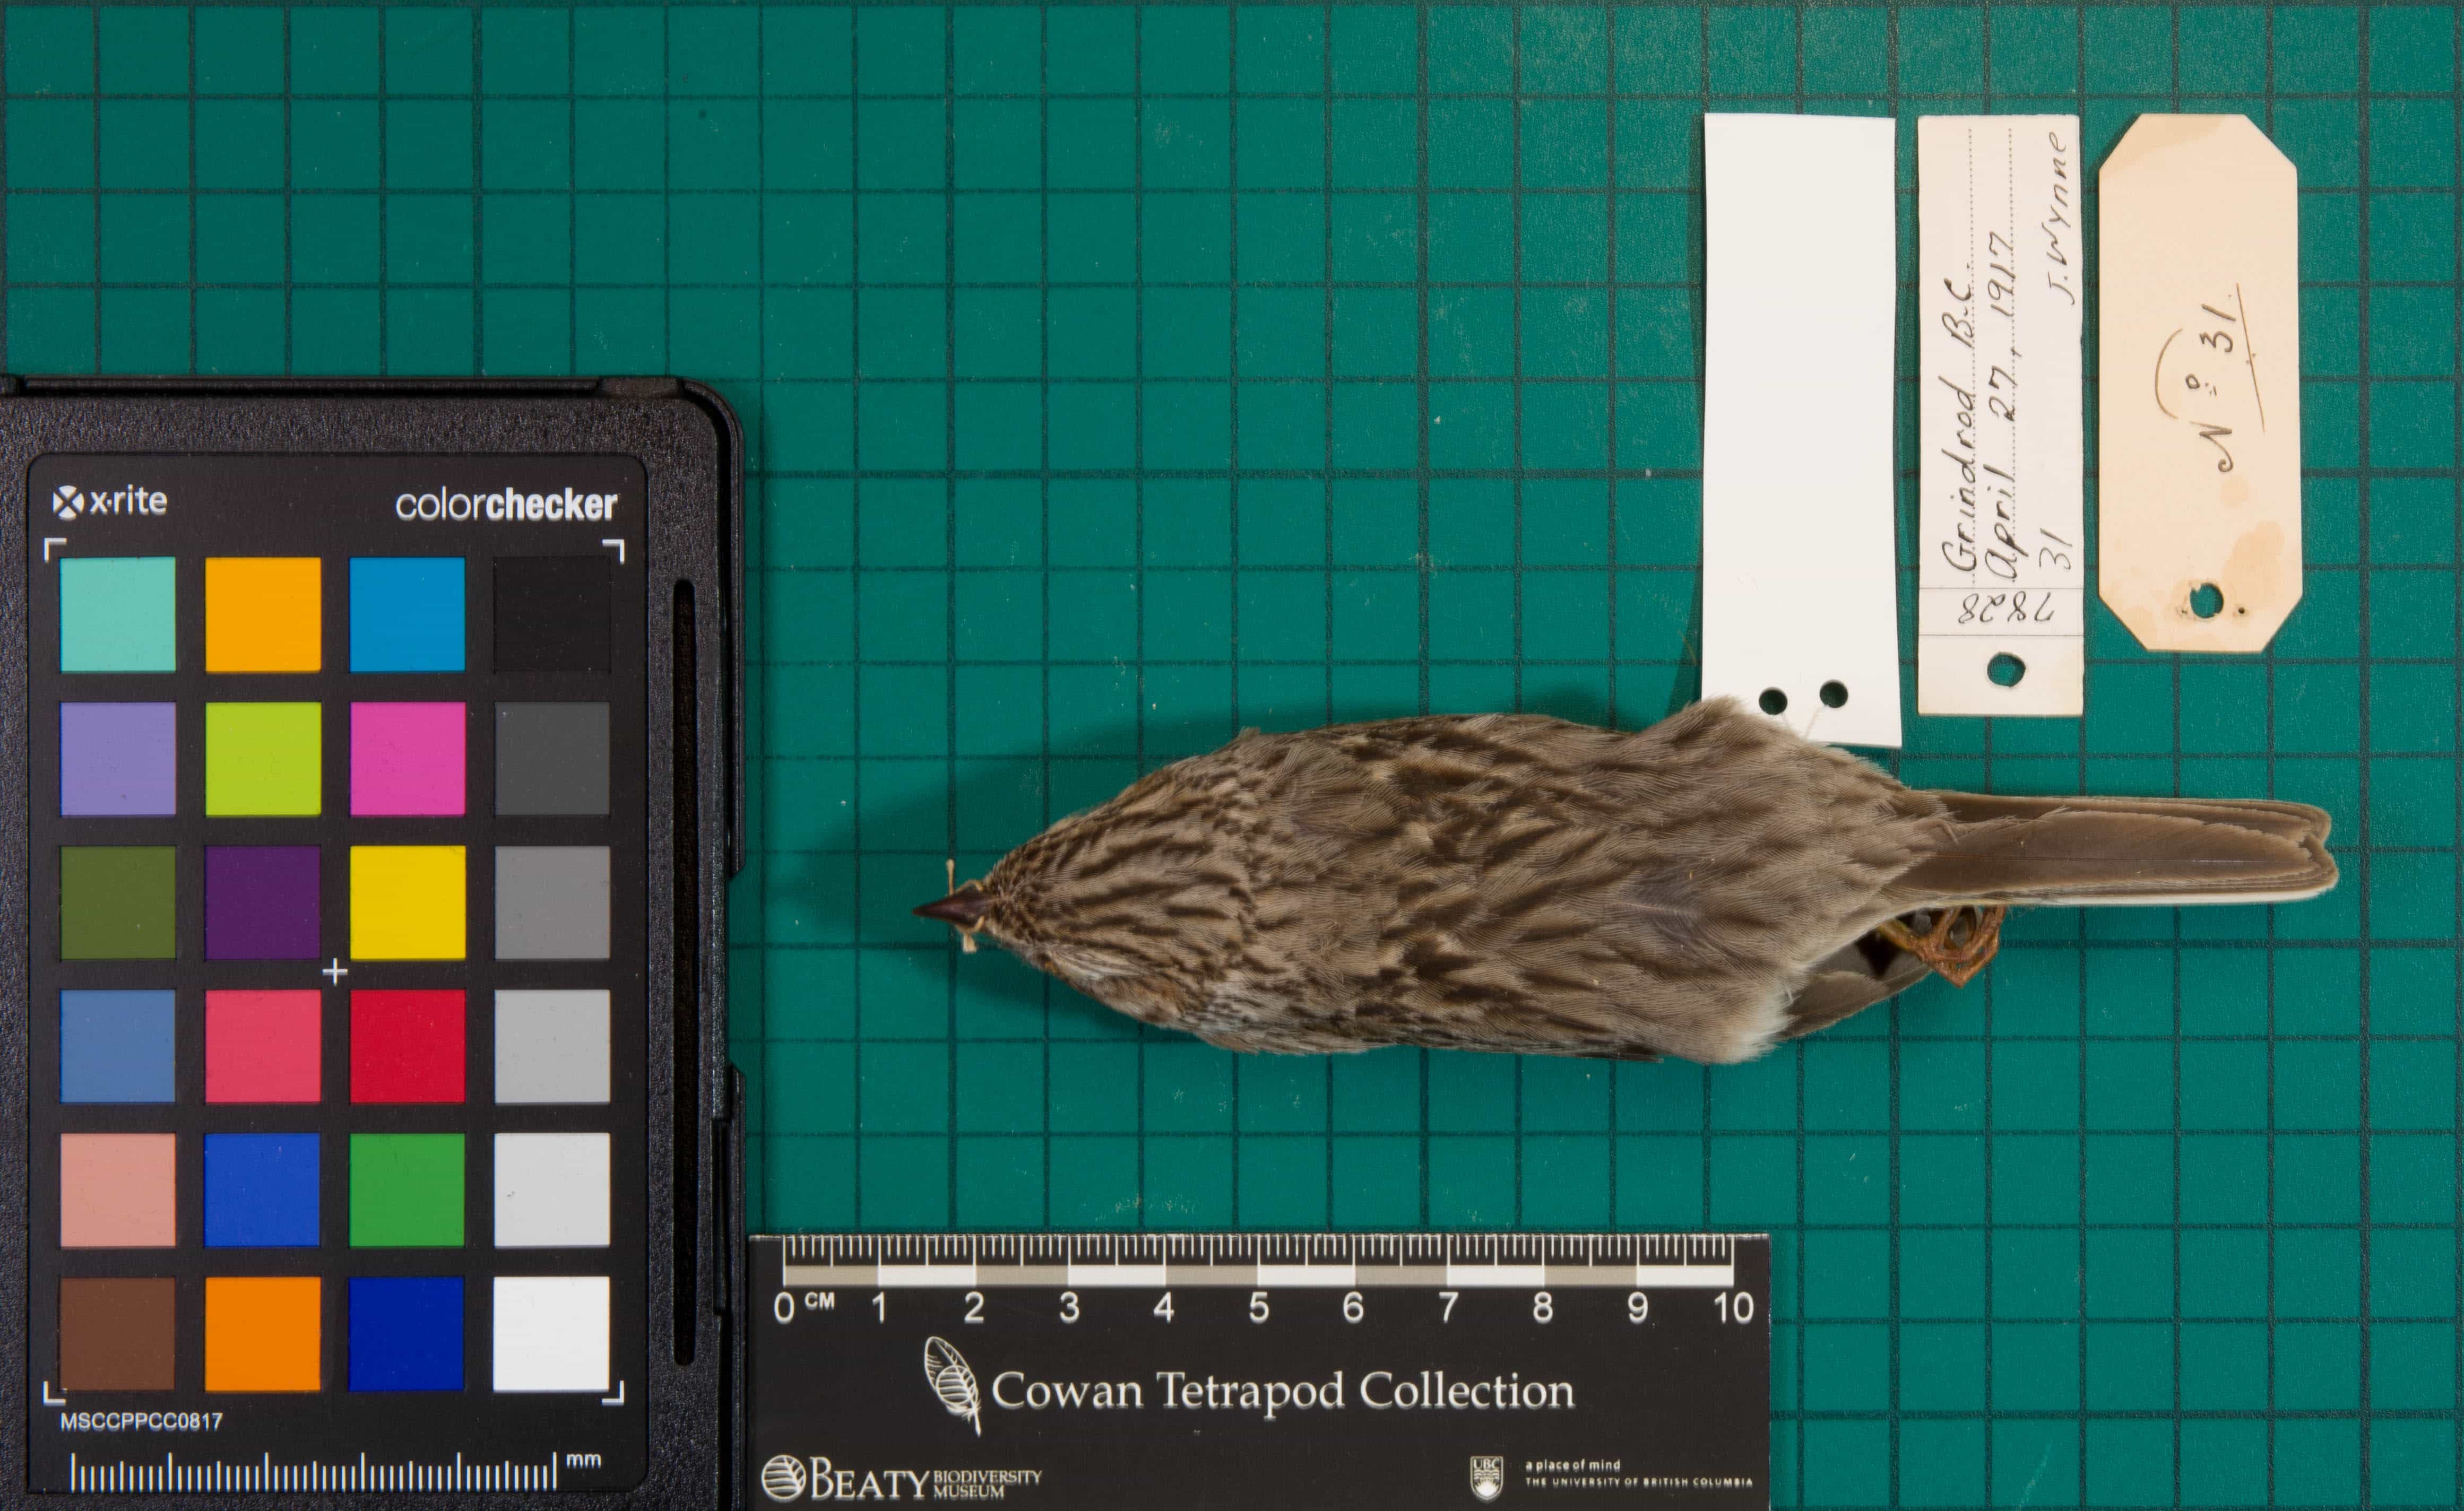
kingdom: Animalia
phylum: Chordata
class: Aves
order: Passeriformes
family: Passerellidae
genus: Pooecetes
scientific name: Pooecetes gramineus
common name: Vesper Sparrow
